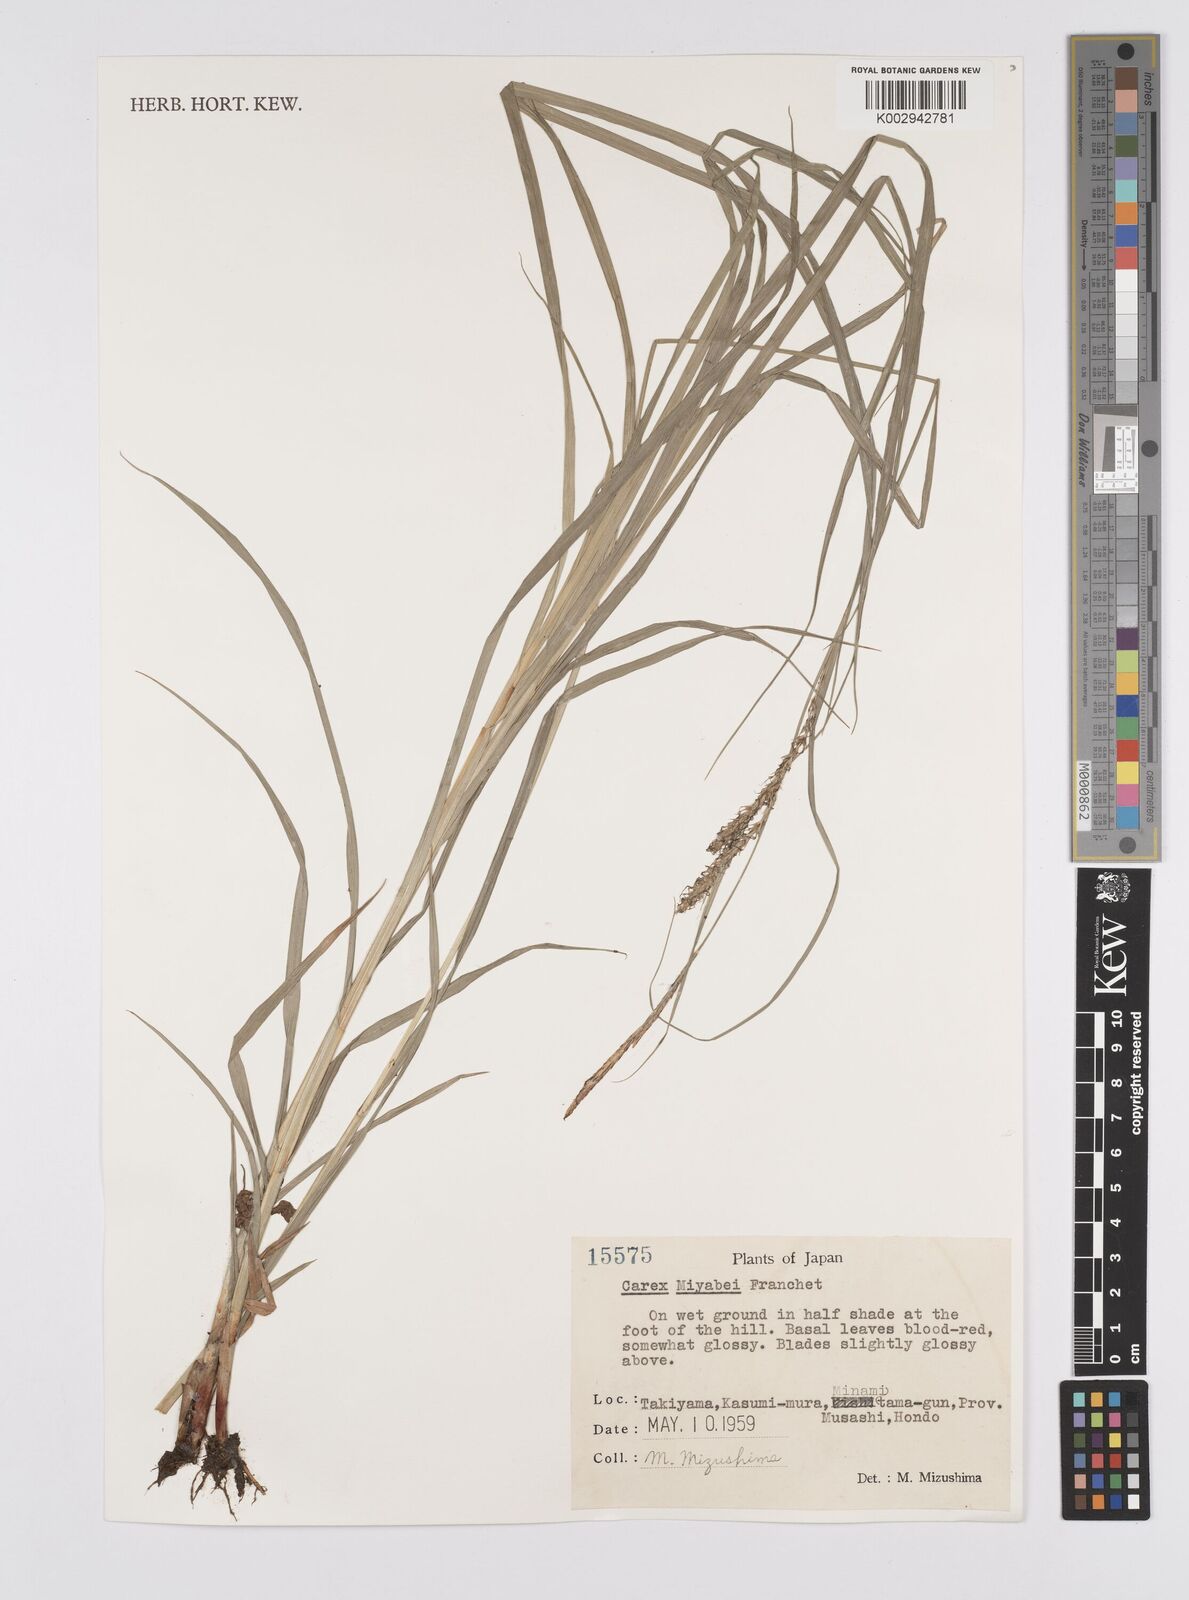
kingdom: Plantae
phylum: Tracheophyta
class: Liliopsida
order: Poales
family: Cyperaceae
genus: Carex
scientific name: Carex fedia
